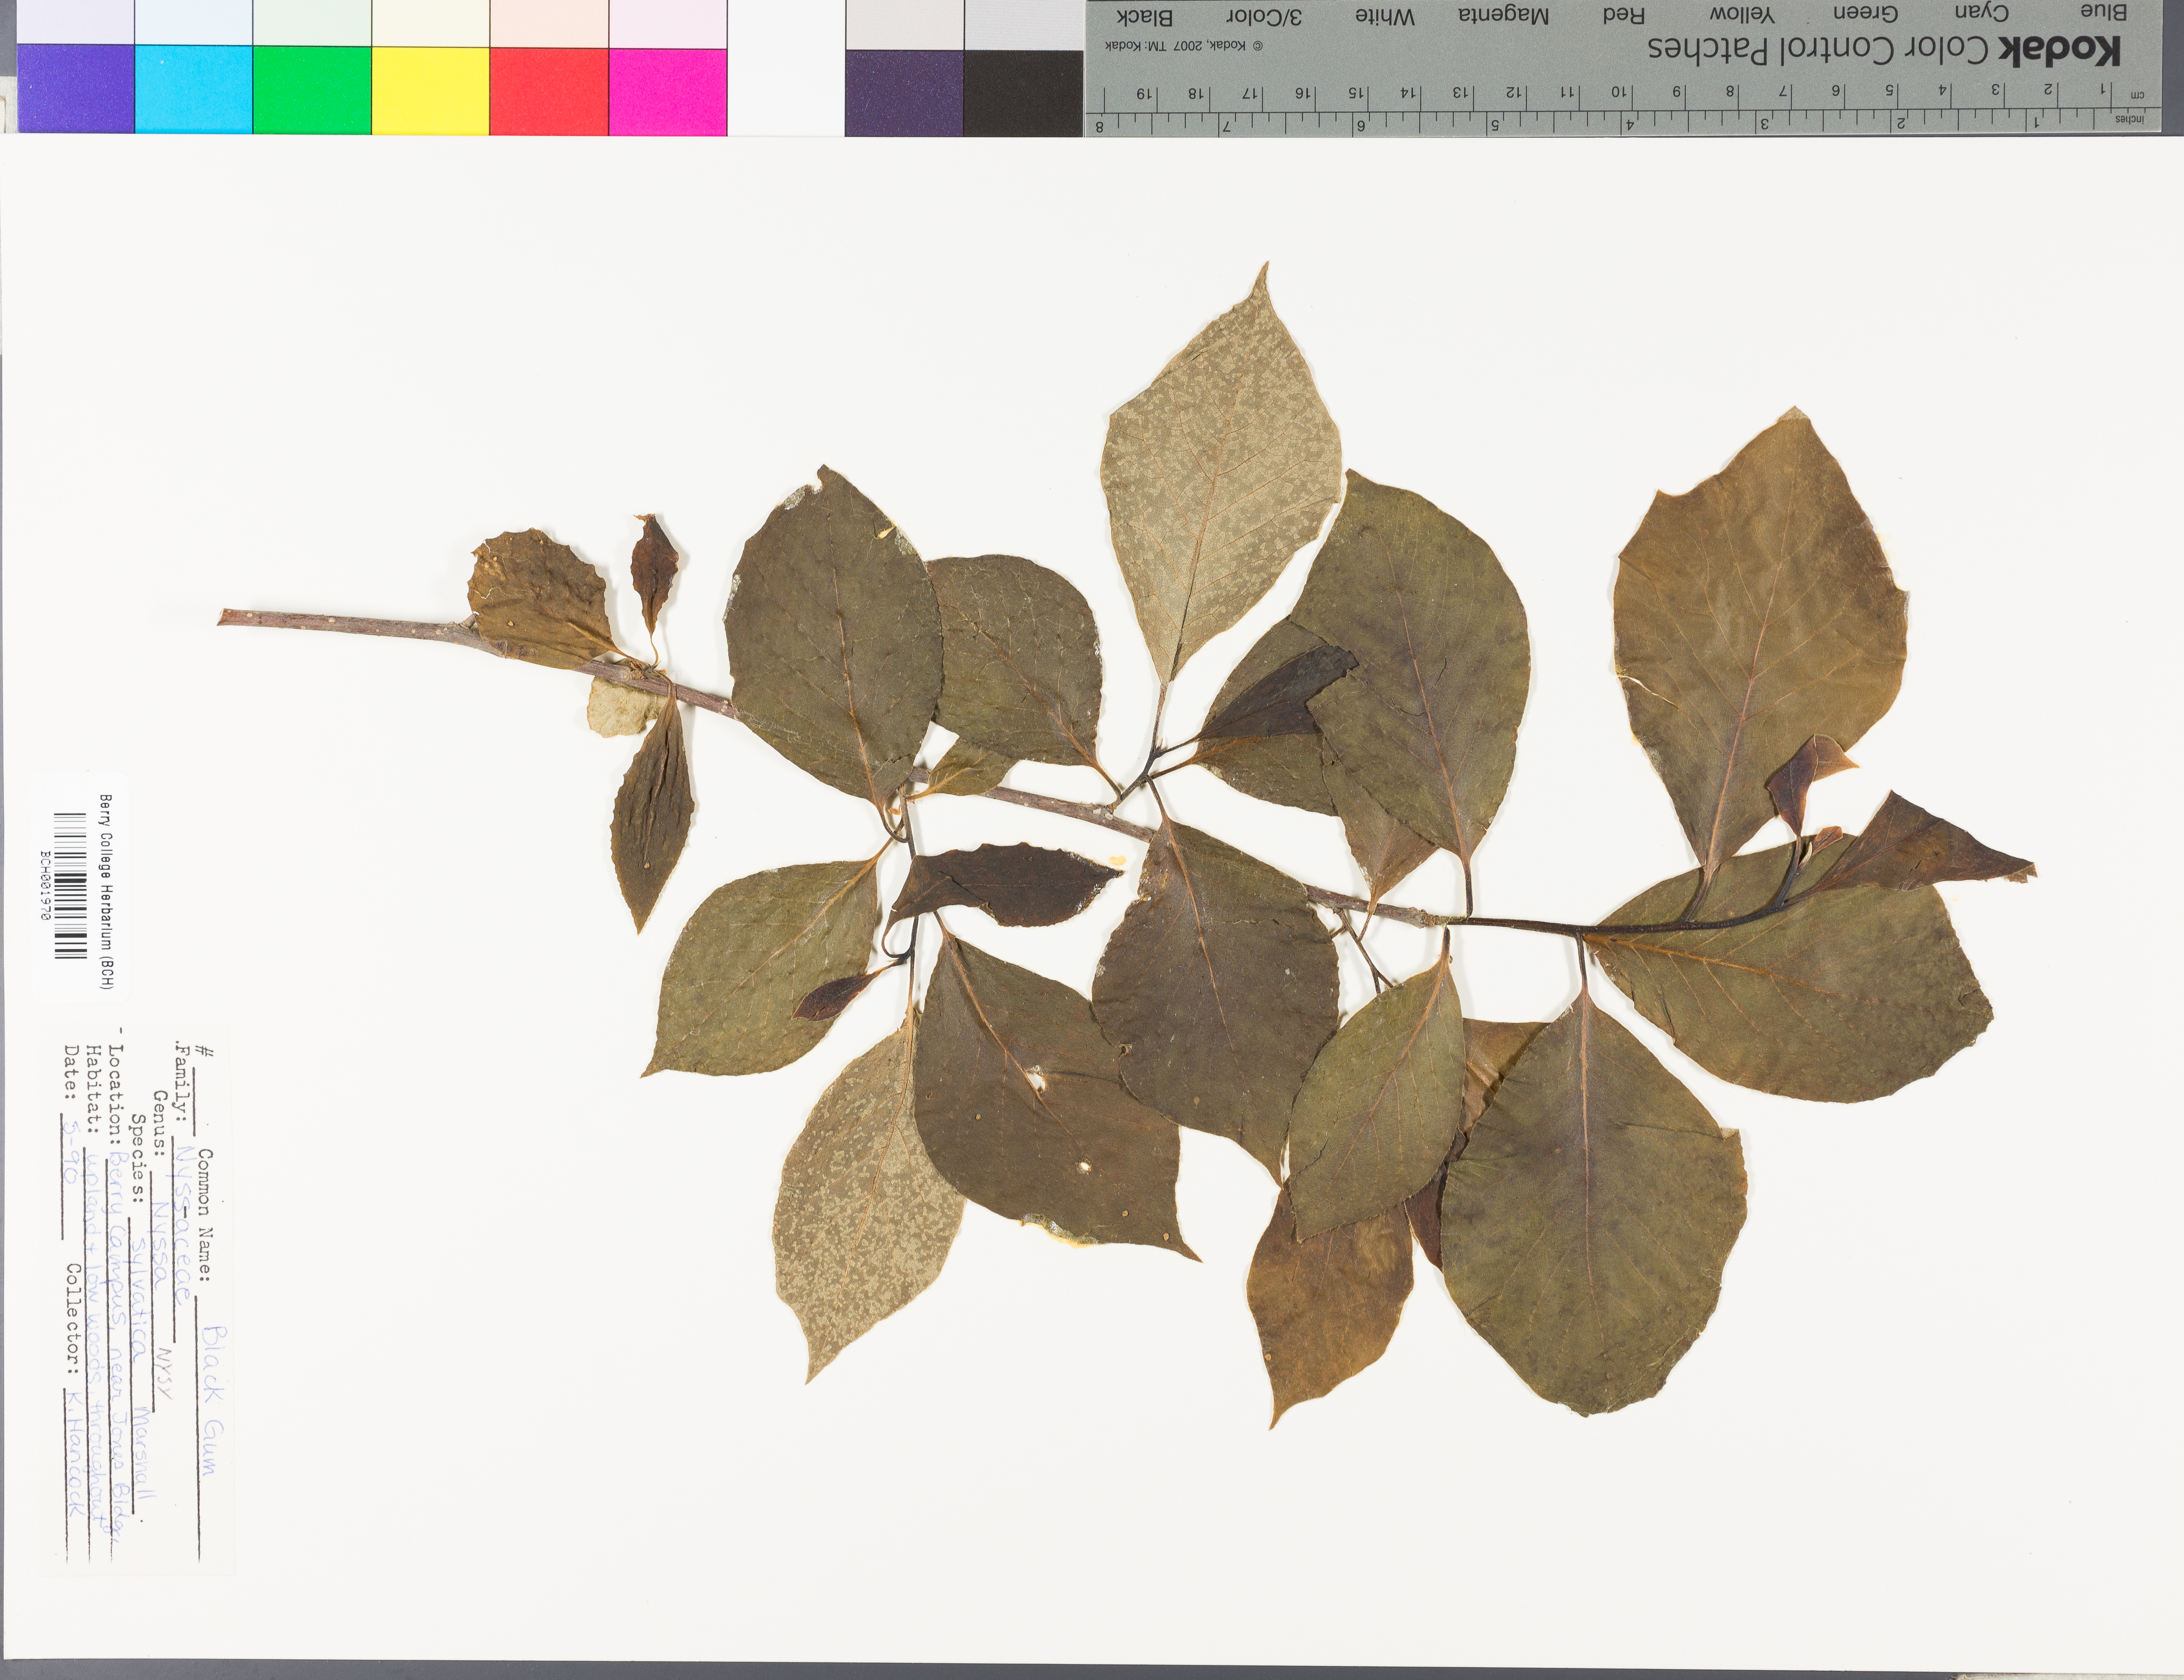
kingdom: Plantae
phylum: Tracheophyta
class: Magnoliopsida
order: Cornales
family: Nyssaceae
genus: Nyssa
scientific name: Nyssa sylvatica
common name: Black tupelo
